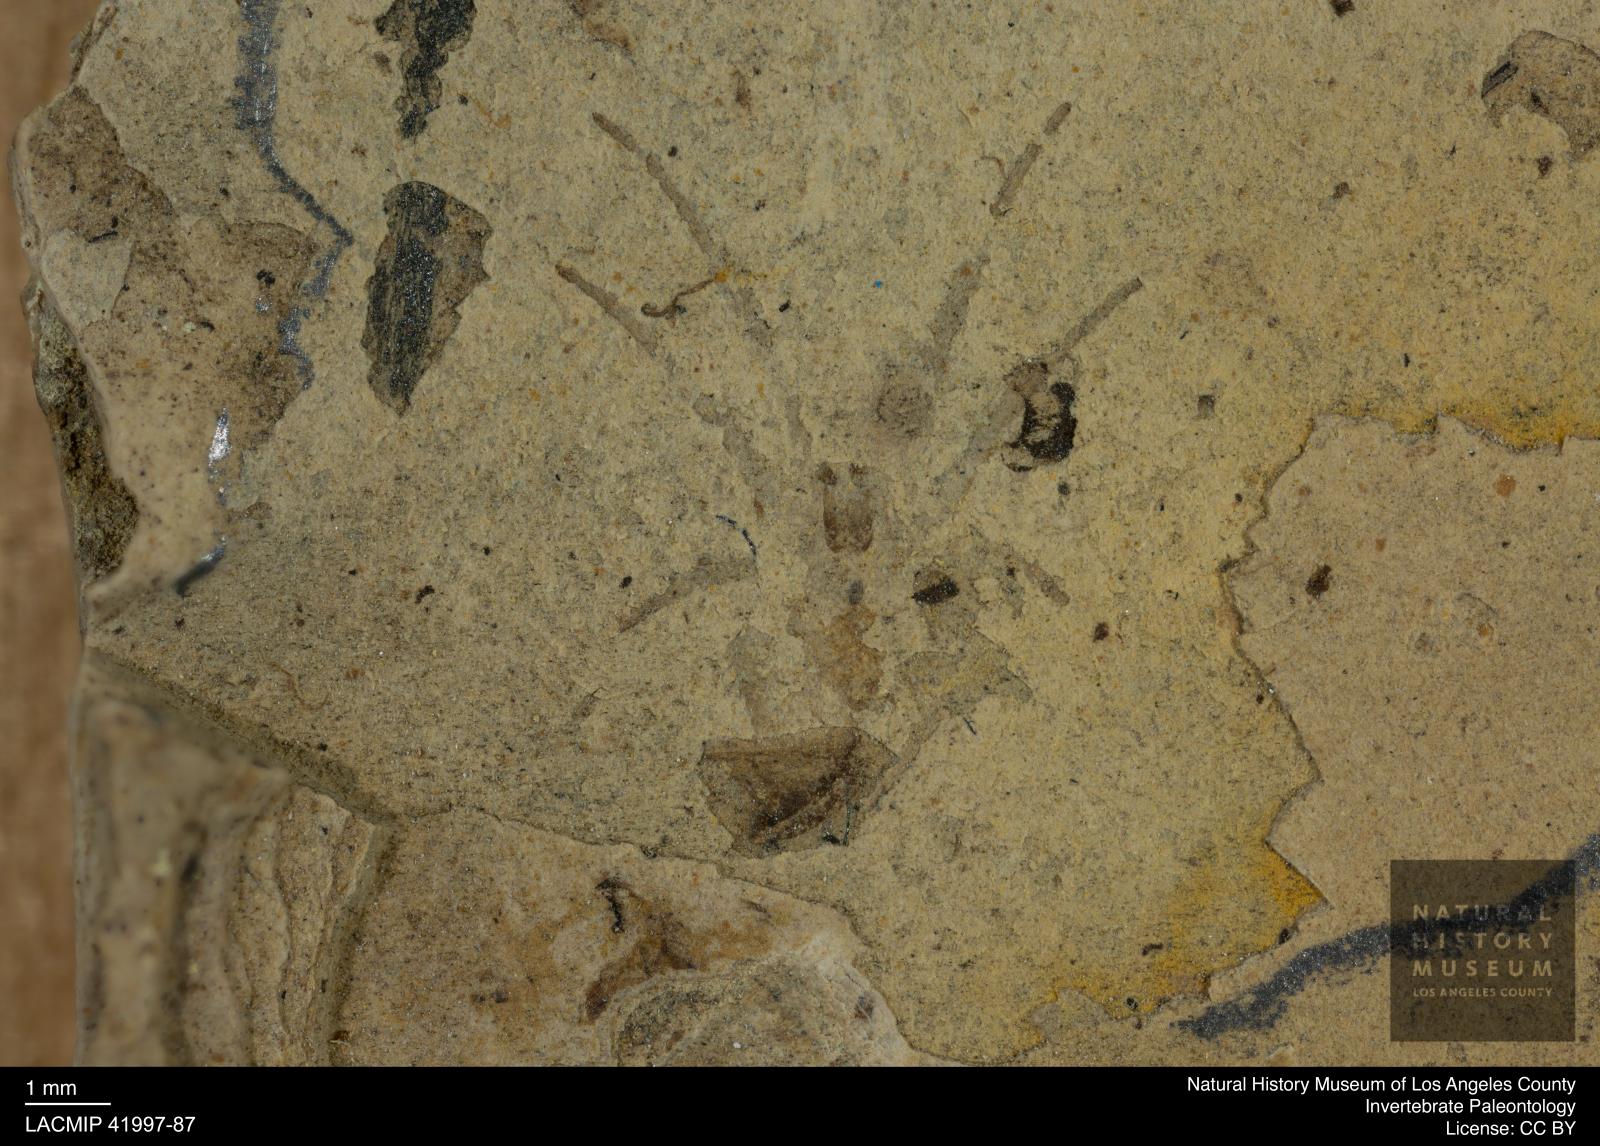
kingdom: Animalia
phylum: Arthropoda
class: Arachnida
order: Araneae
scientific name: Araneae
